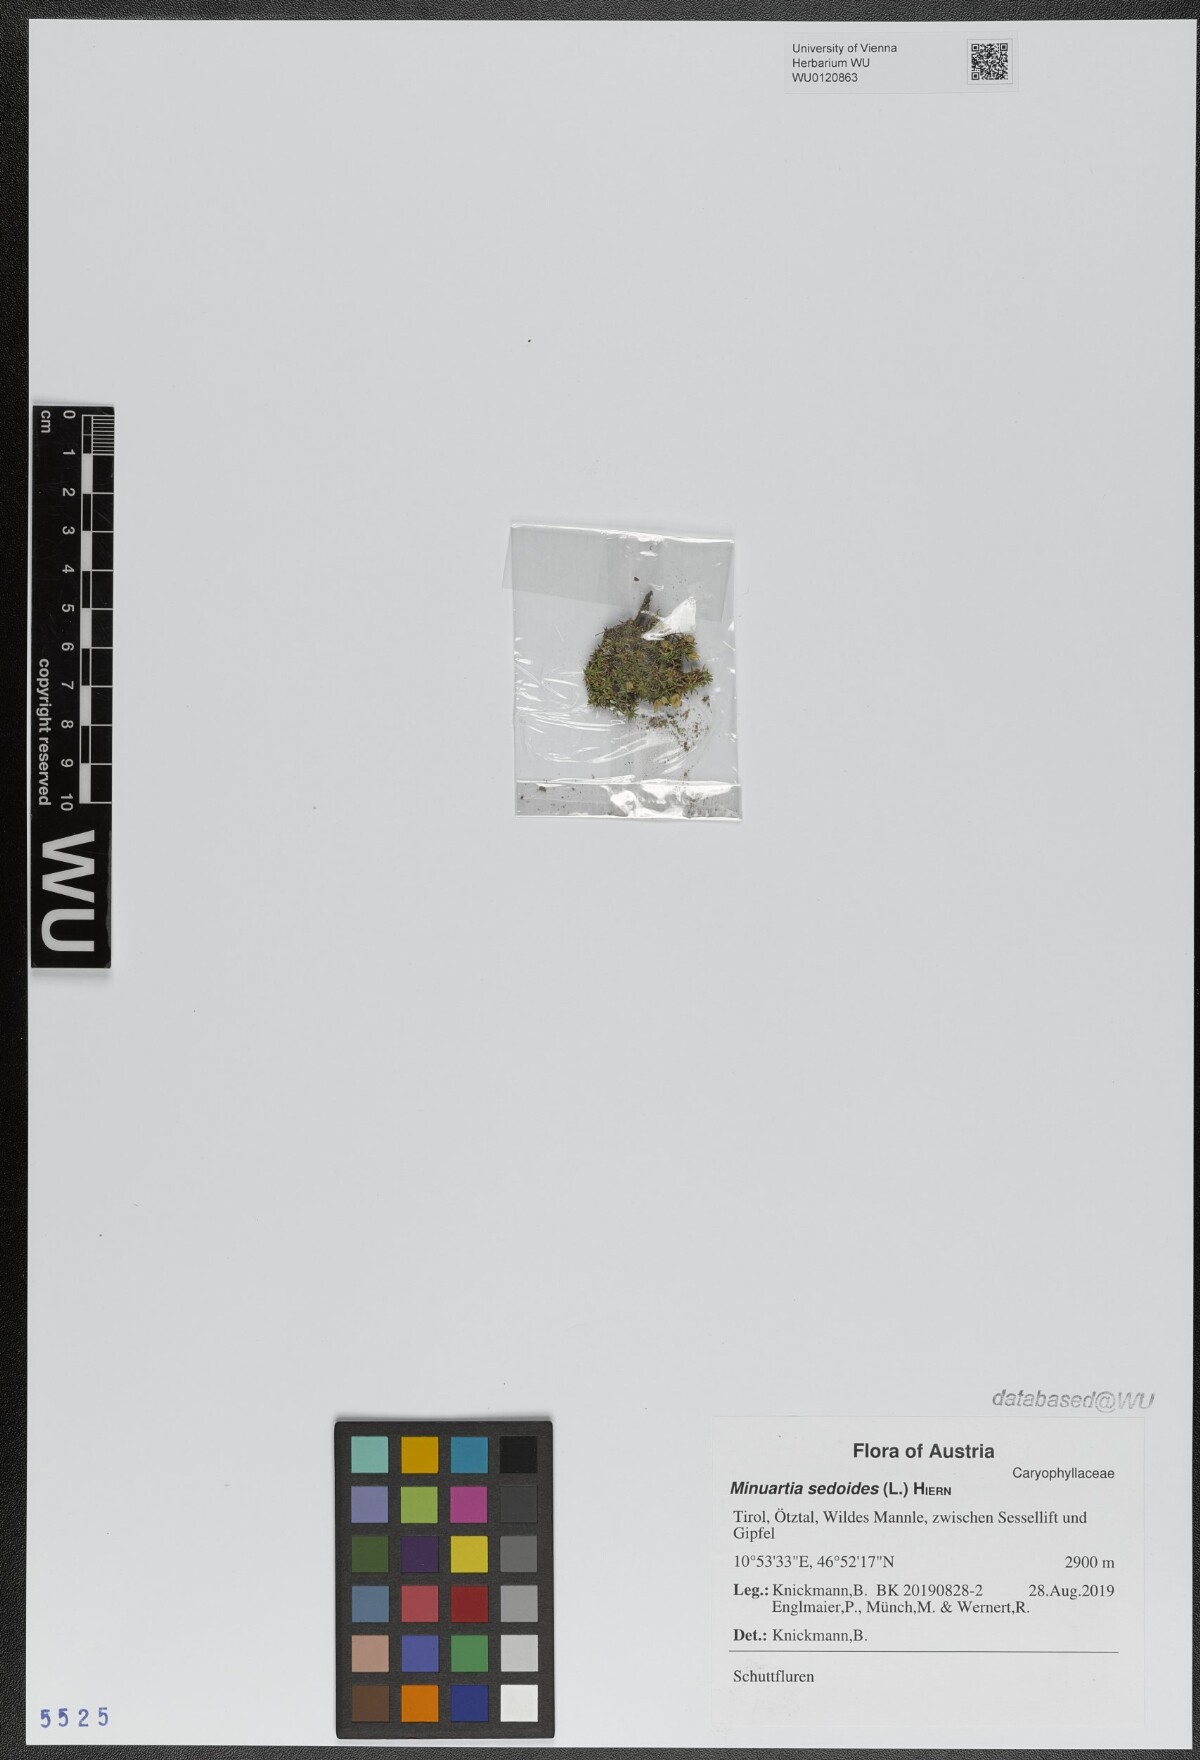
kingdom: Plantae
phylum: Tracheophyta
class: Magnoliopsida
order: Caryophyllales
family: Caryophyllaceae
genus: Cherleria
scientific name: Cherleria sedoides
